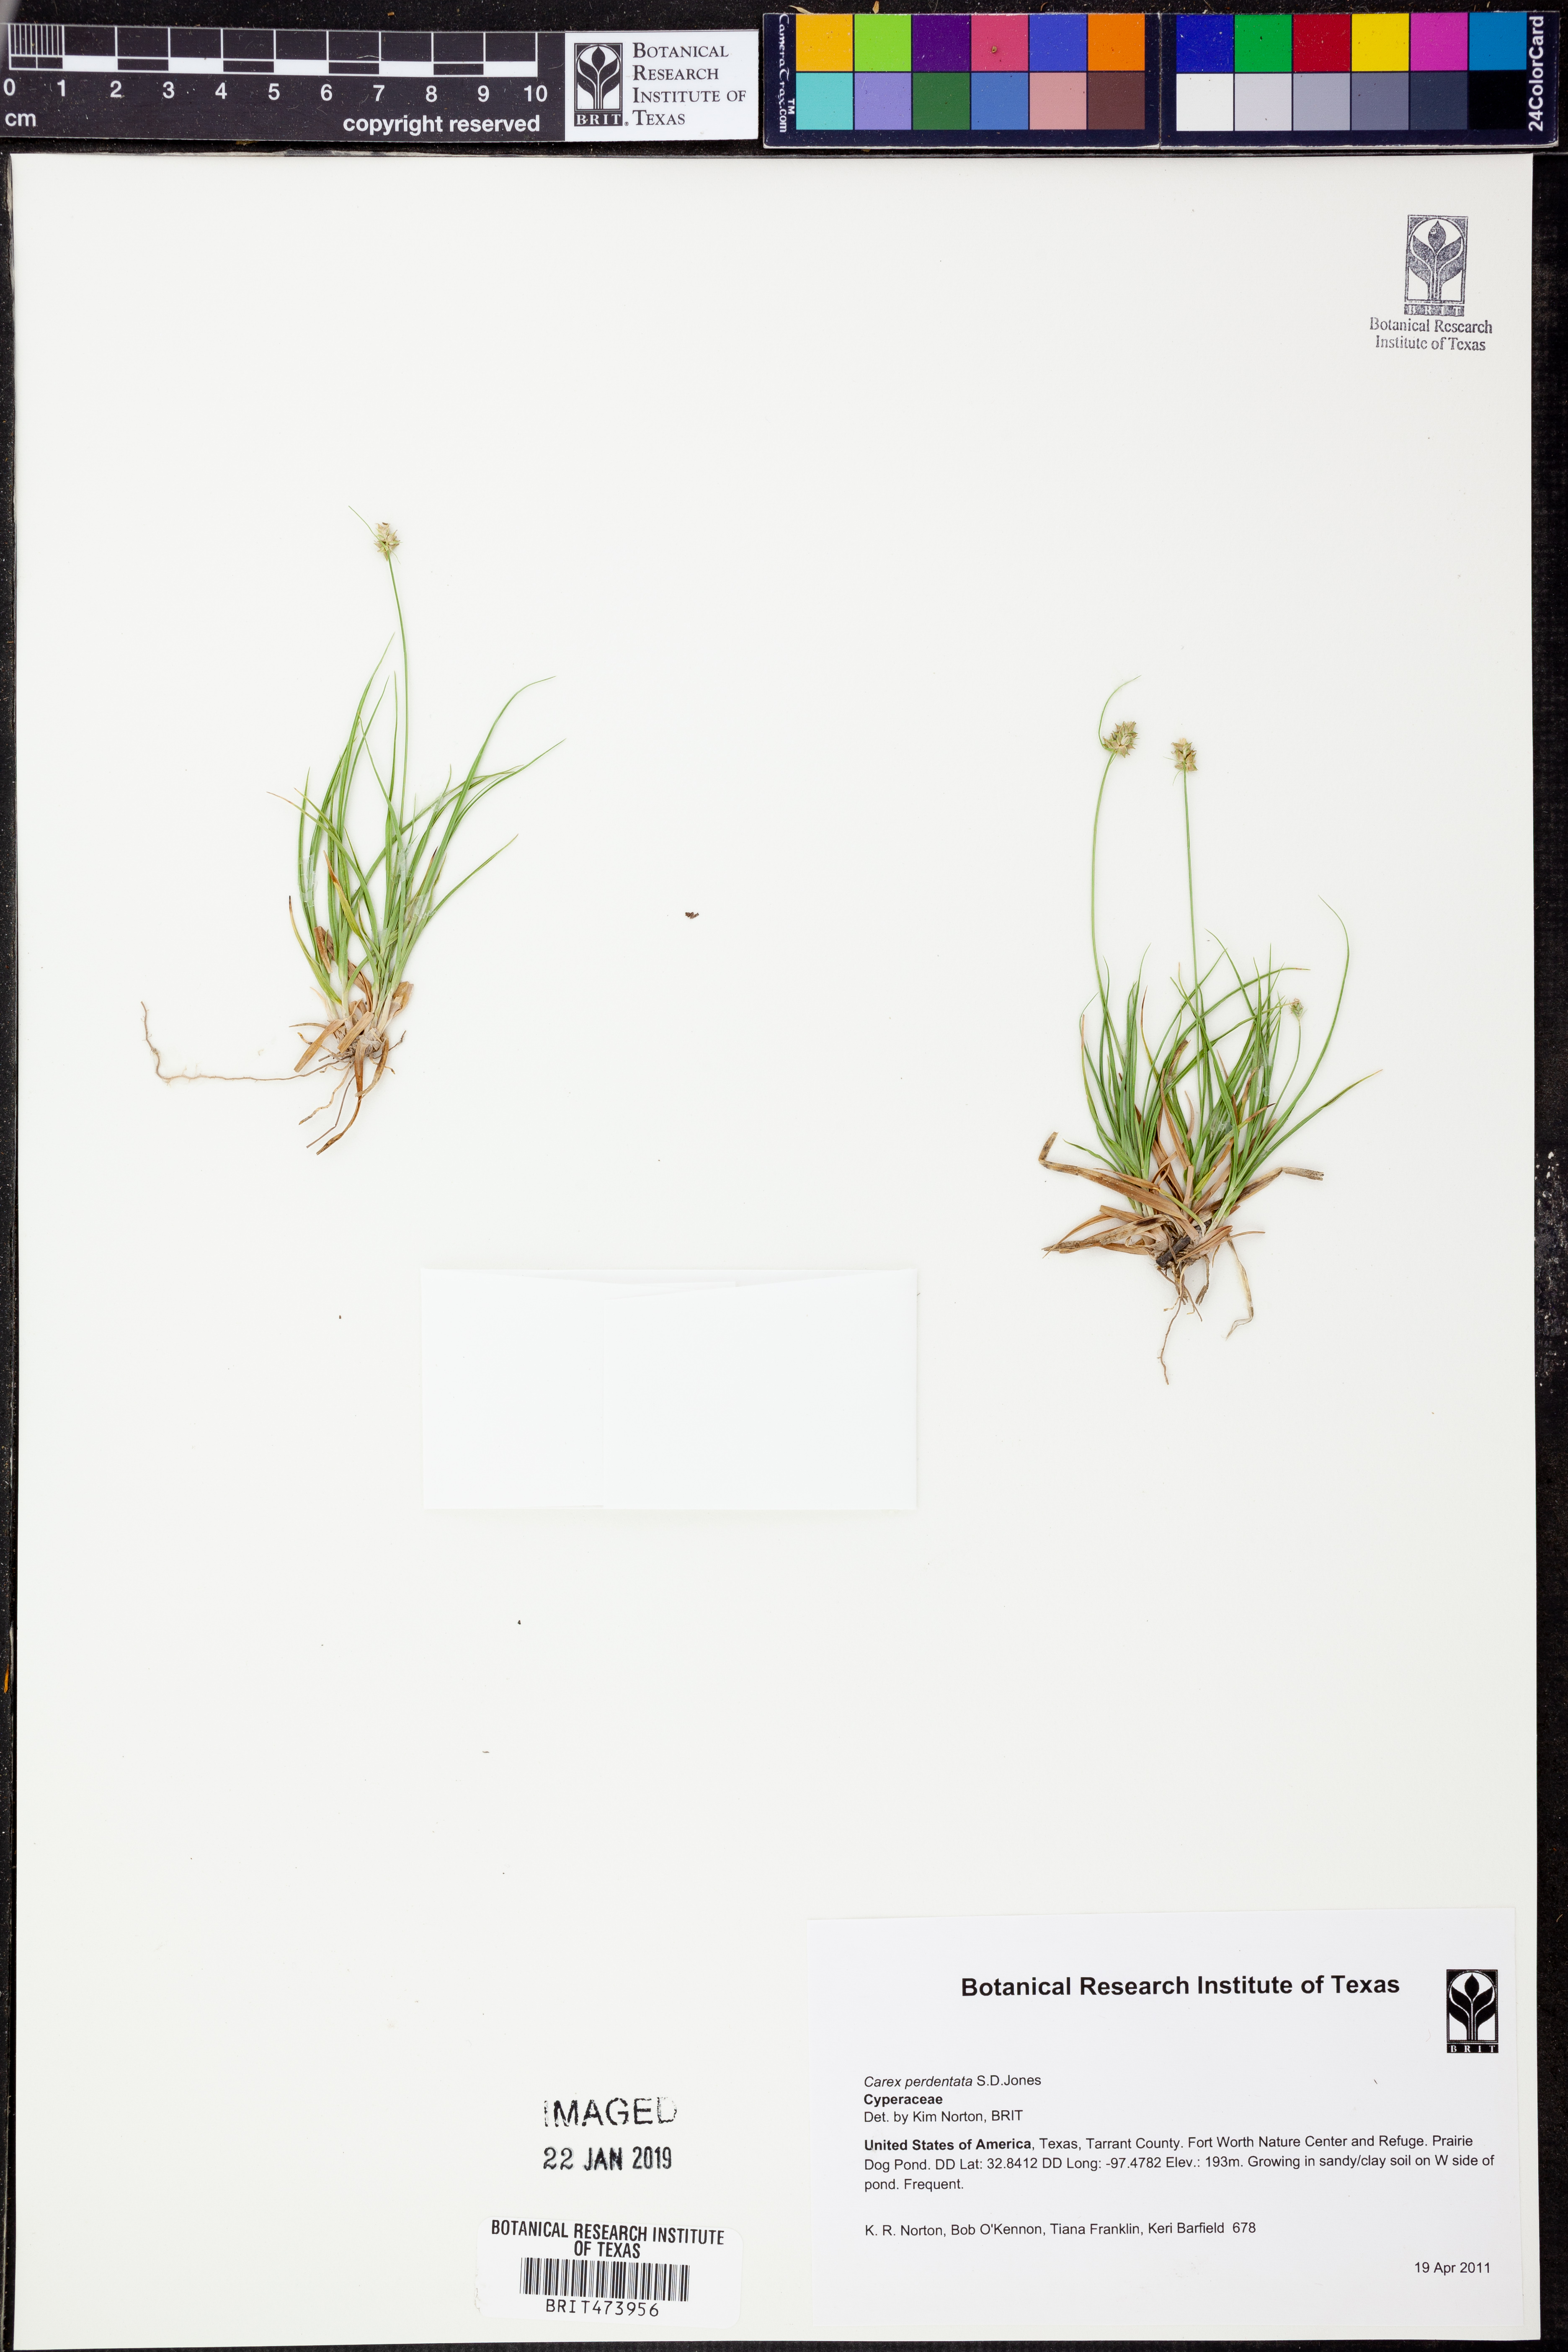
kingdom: Plantae
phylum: Tracheophyta
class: Liliopsida
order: Poales
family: Cyperaceae
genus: Carex
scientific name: Carex perdentata
